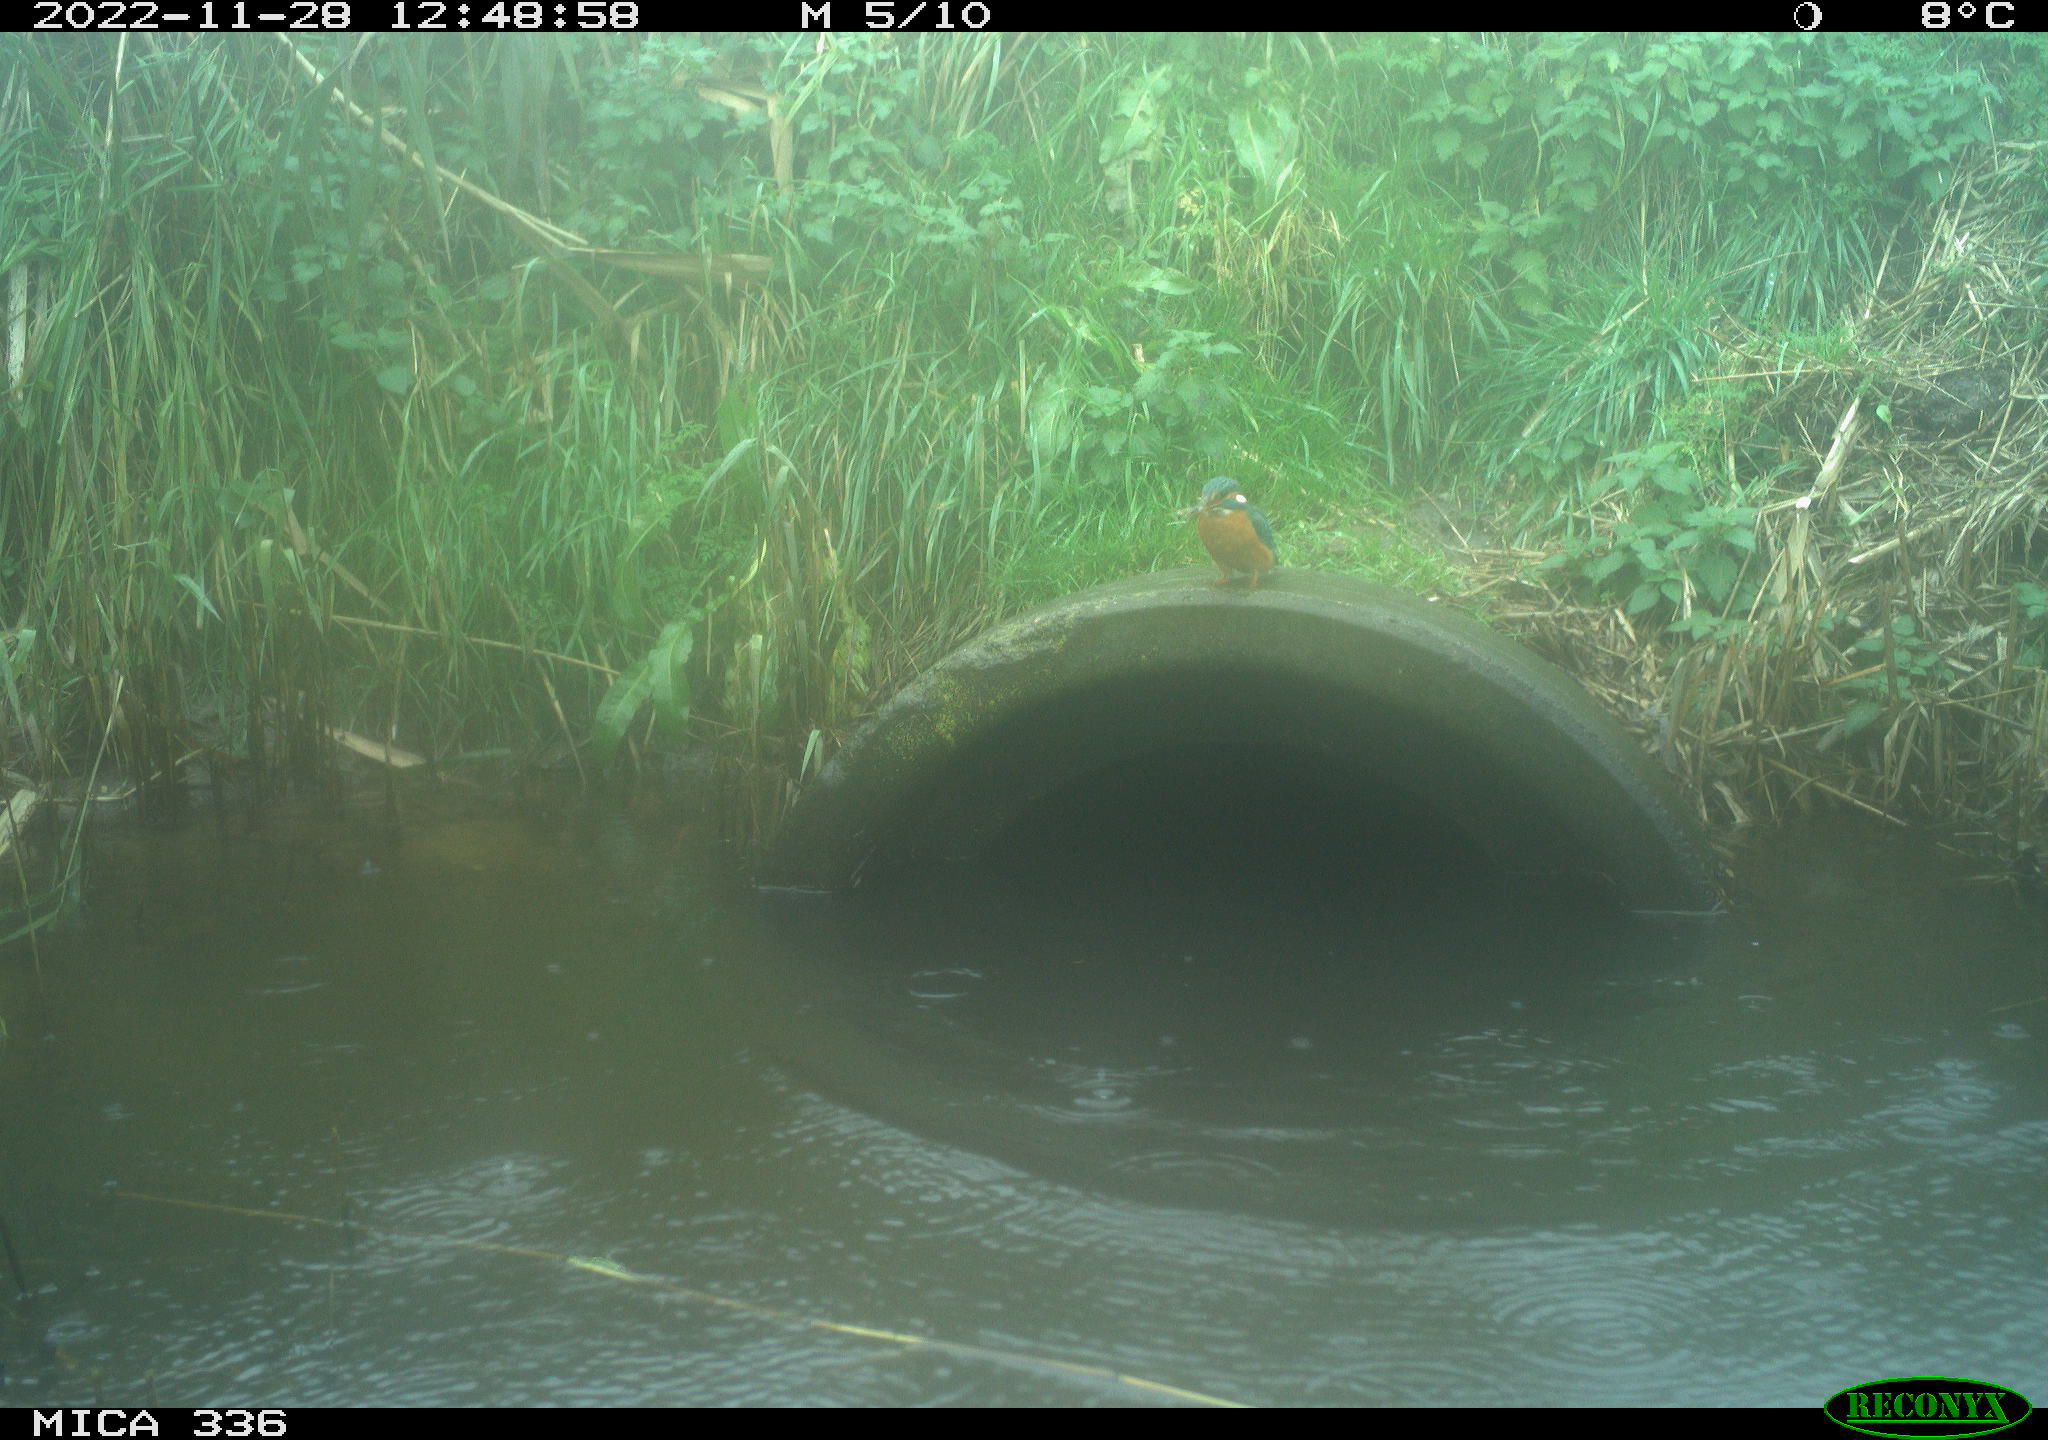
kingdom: Animalia
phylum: Chordata
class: Aves
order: Coraciiformes
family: Alcedinidae
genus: Alcedo
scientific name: Alcedo atthis
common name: Common kingfisher
